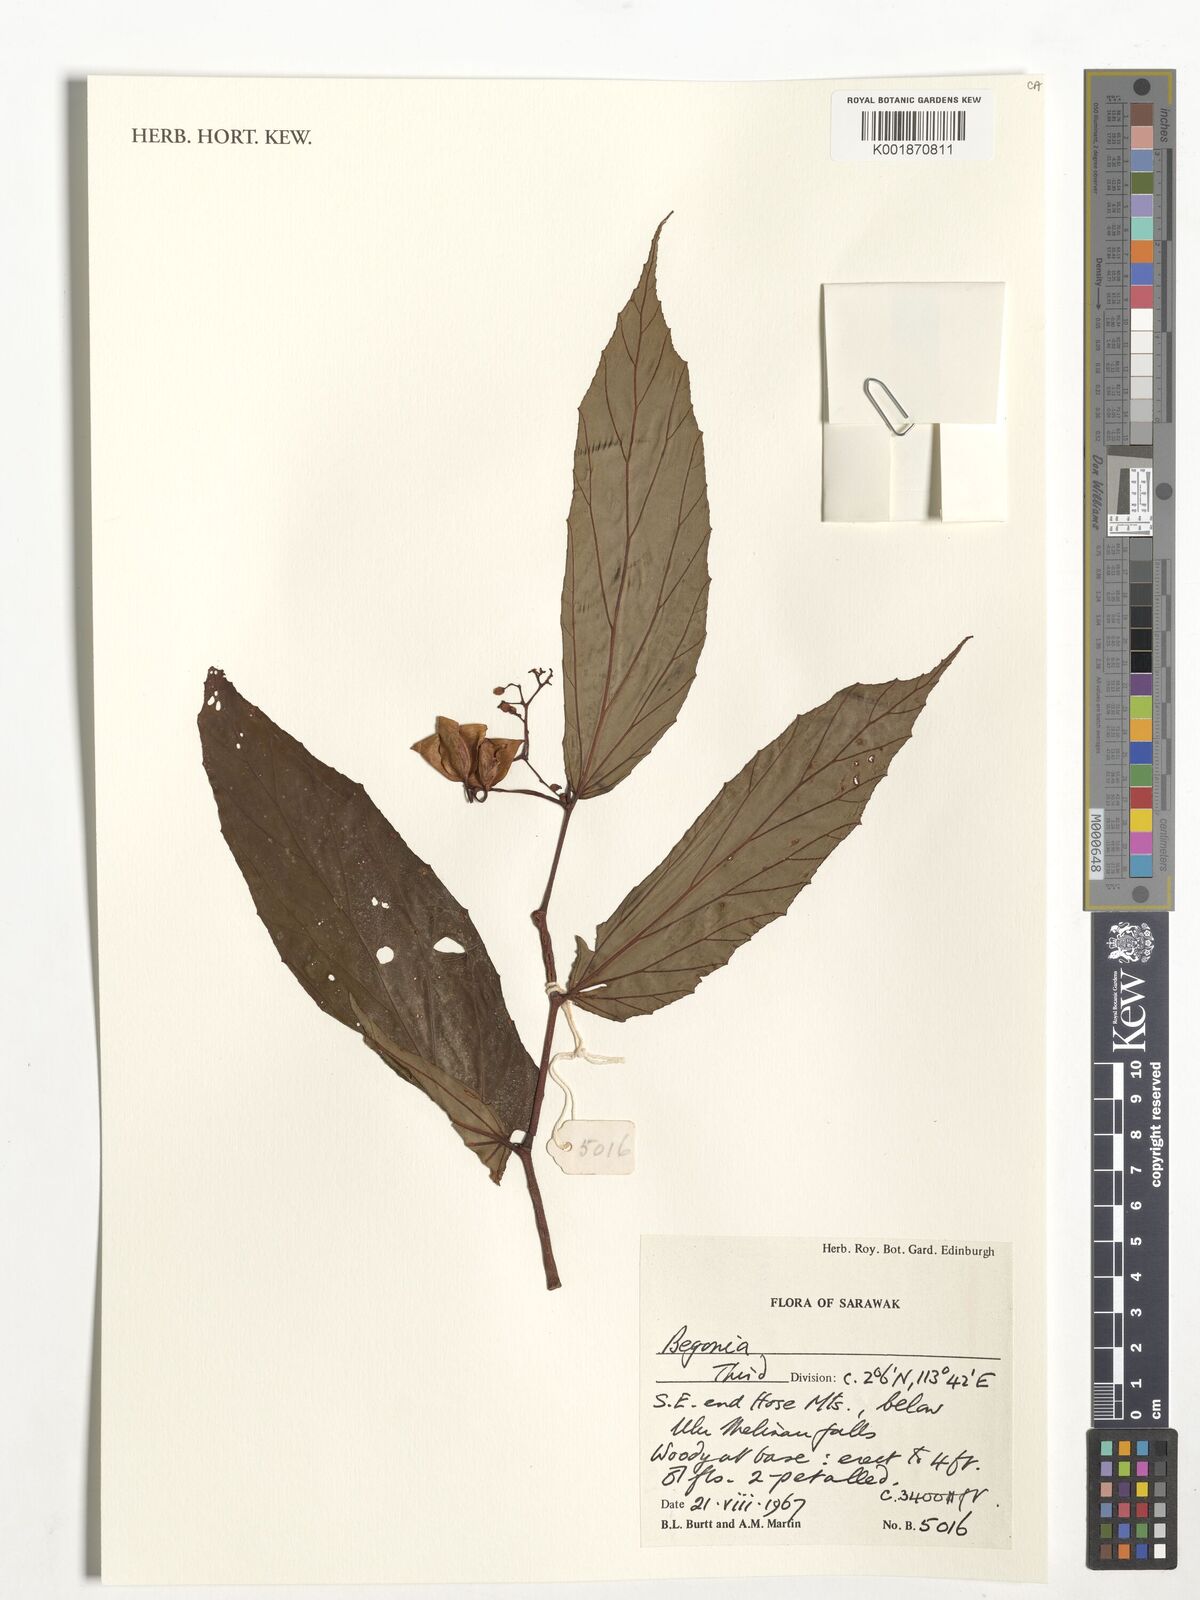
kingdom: Plantae
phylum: Tracheophyta
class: Magnoliopsida
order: Cucurbitales
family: Begoniaceae
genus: Begonia
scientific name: Begonia
